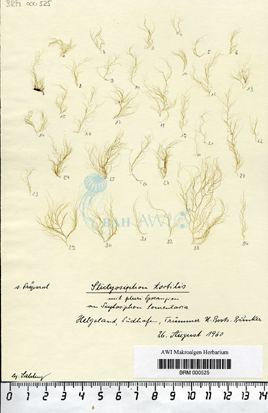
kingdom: Chromista
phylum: Ochrophyta
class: Phaeophyceae
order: Ectocarpales
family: Chordariaceae
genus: Stictyosiphon
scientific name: Stictyosiphon tortilis
